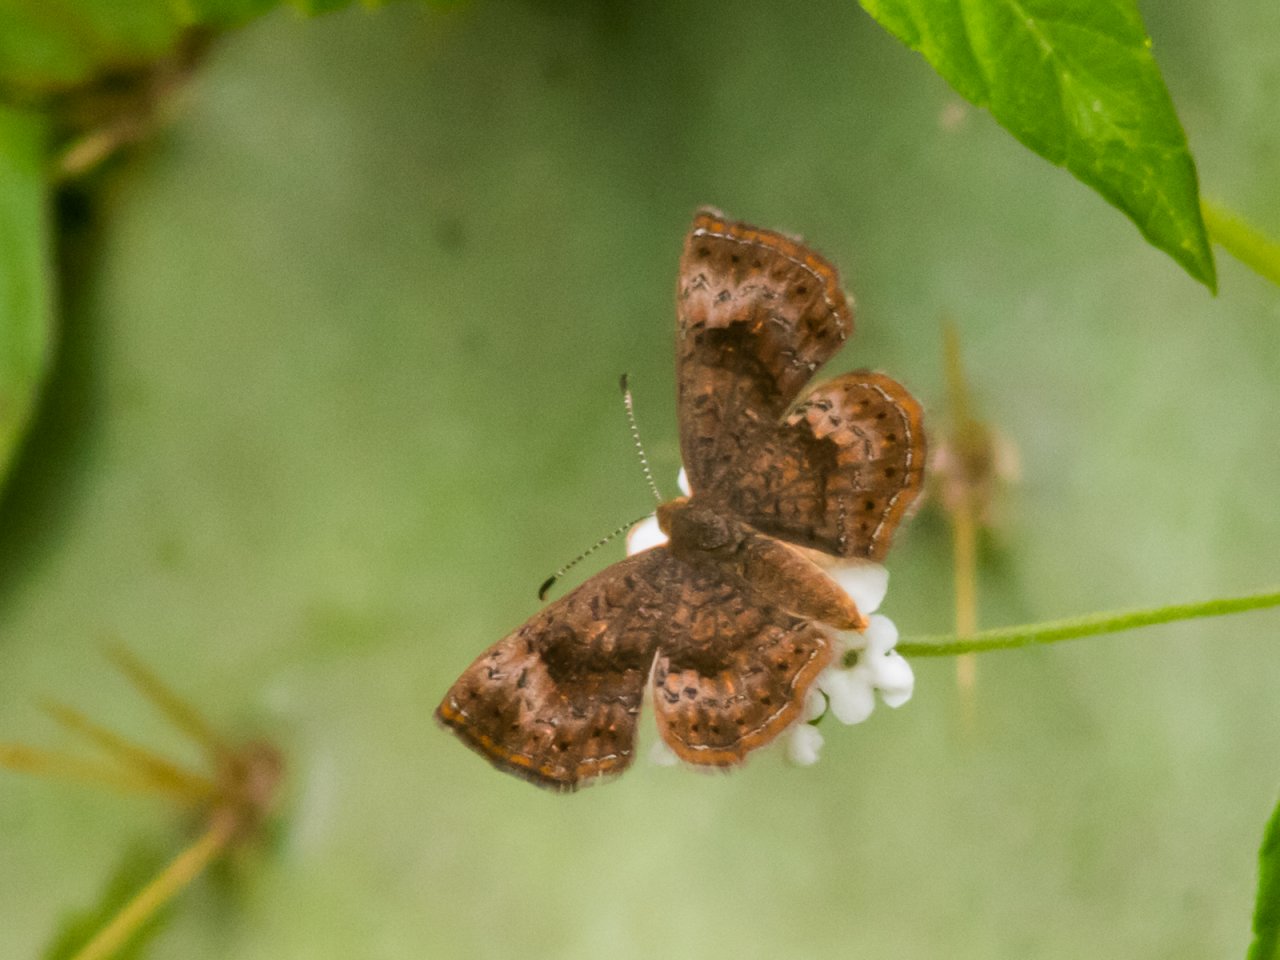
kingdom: Animalia
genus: Calephelis
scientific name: Calephelis perditalis
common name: Rounded Metalmark
